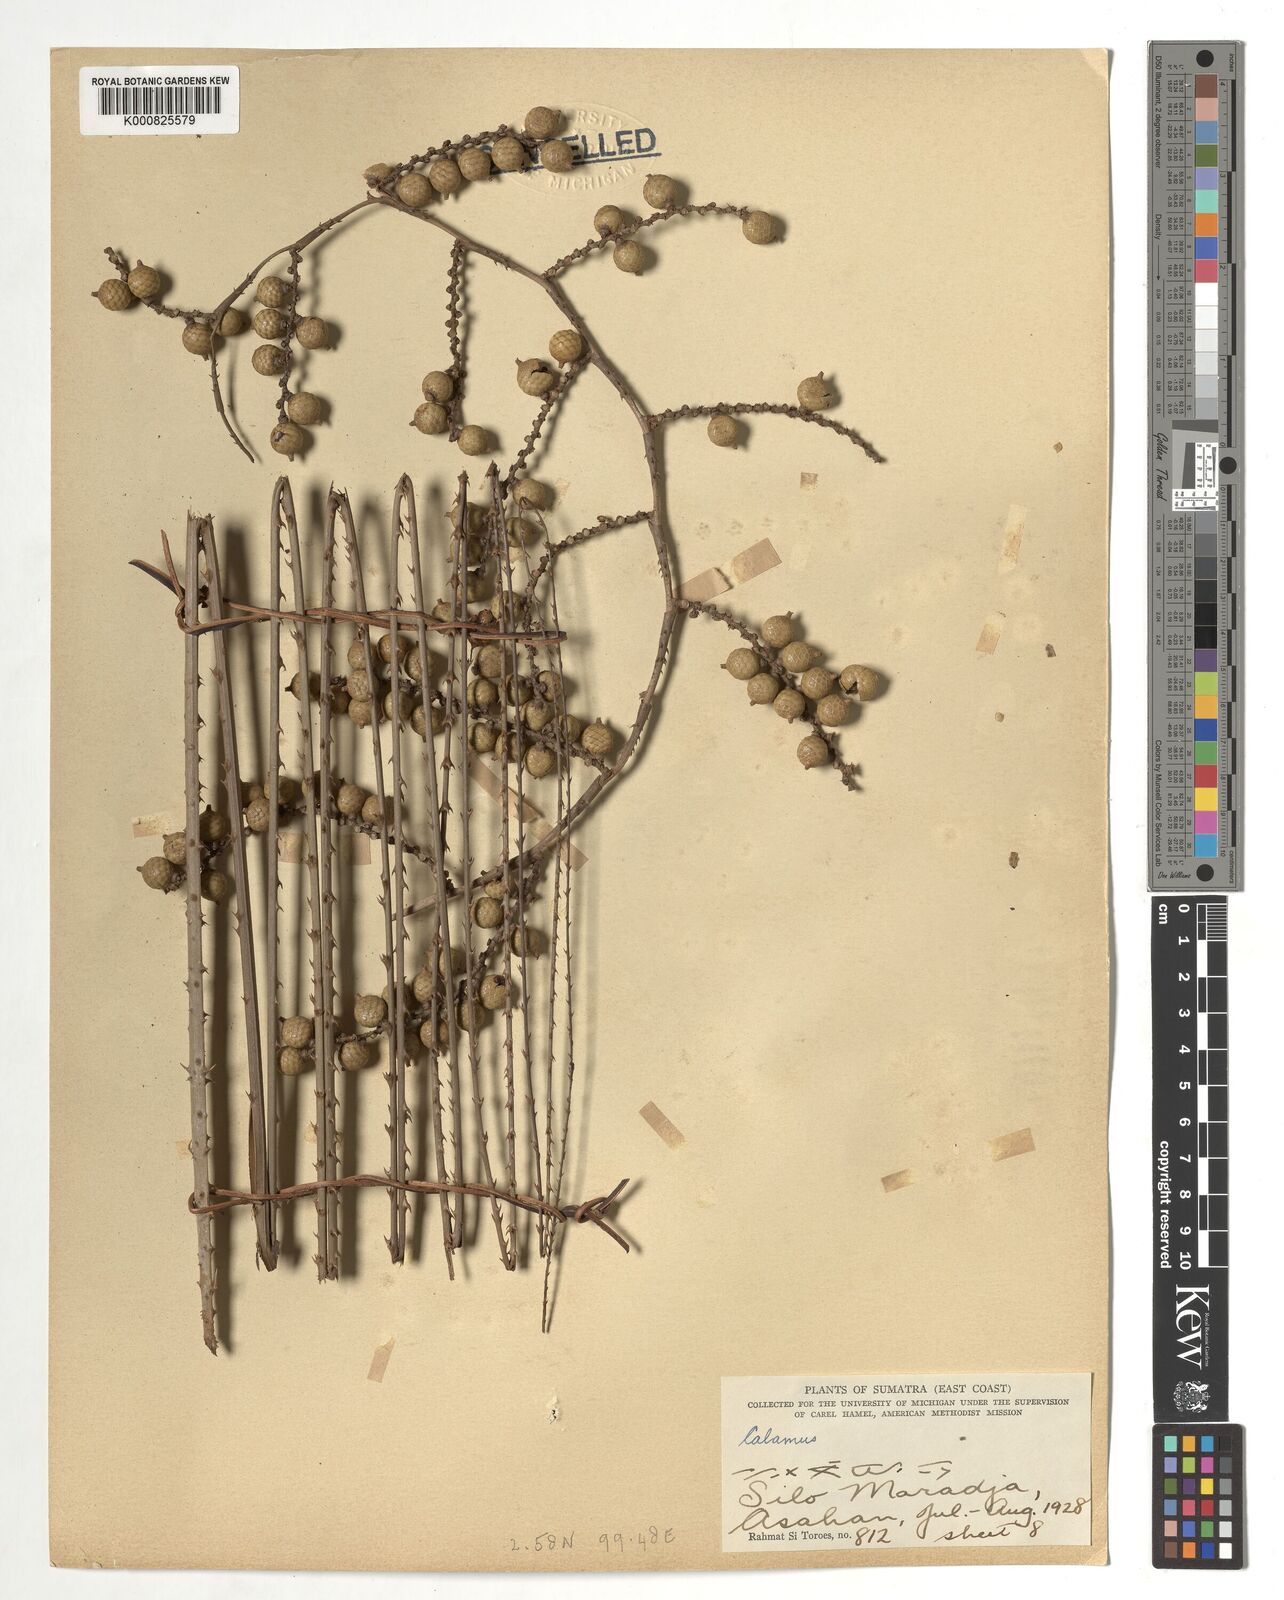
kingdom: Plantae
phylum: Tracheophyta
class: Liliopsida
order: Arecales
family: Arecaceae
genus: Calamus
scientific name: Calamus
